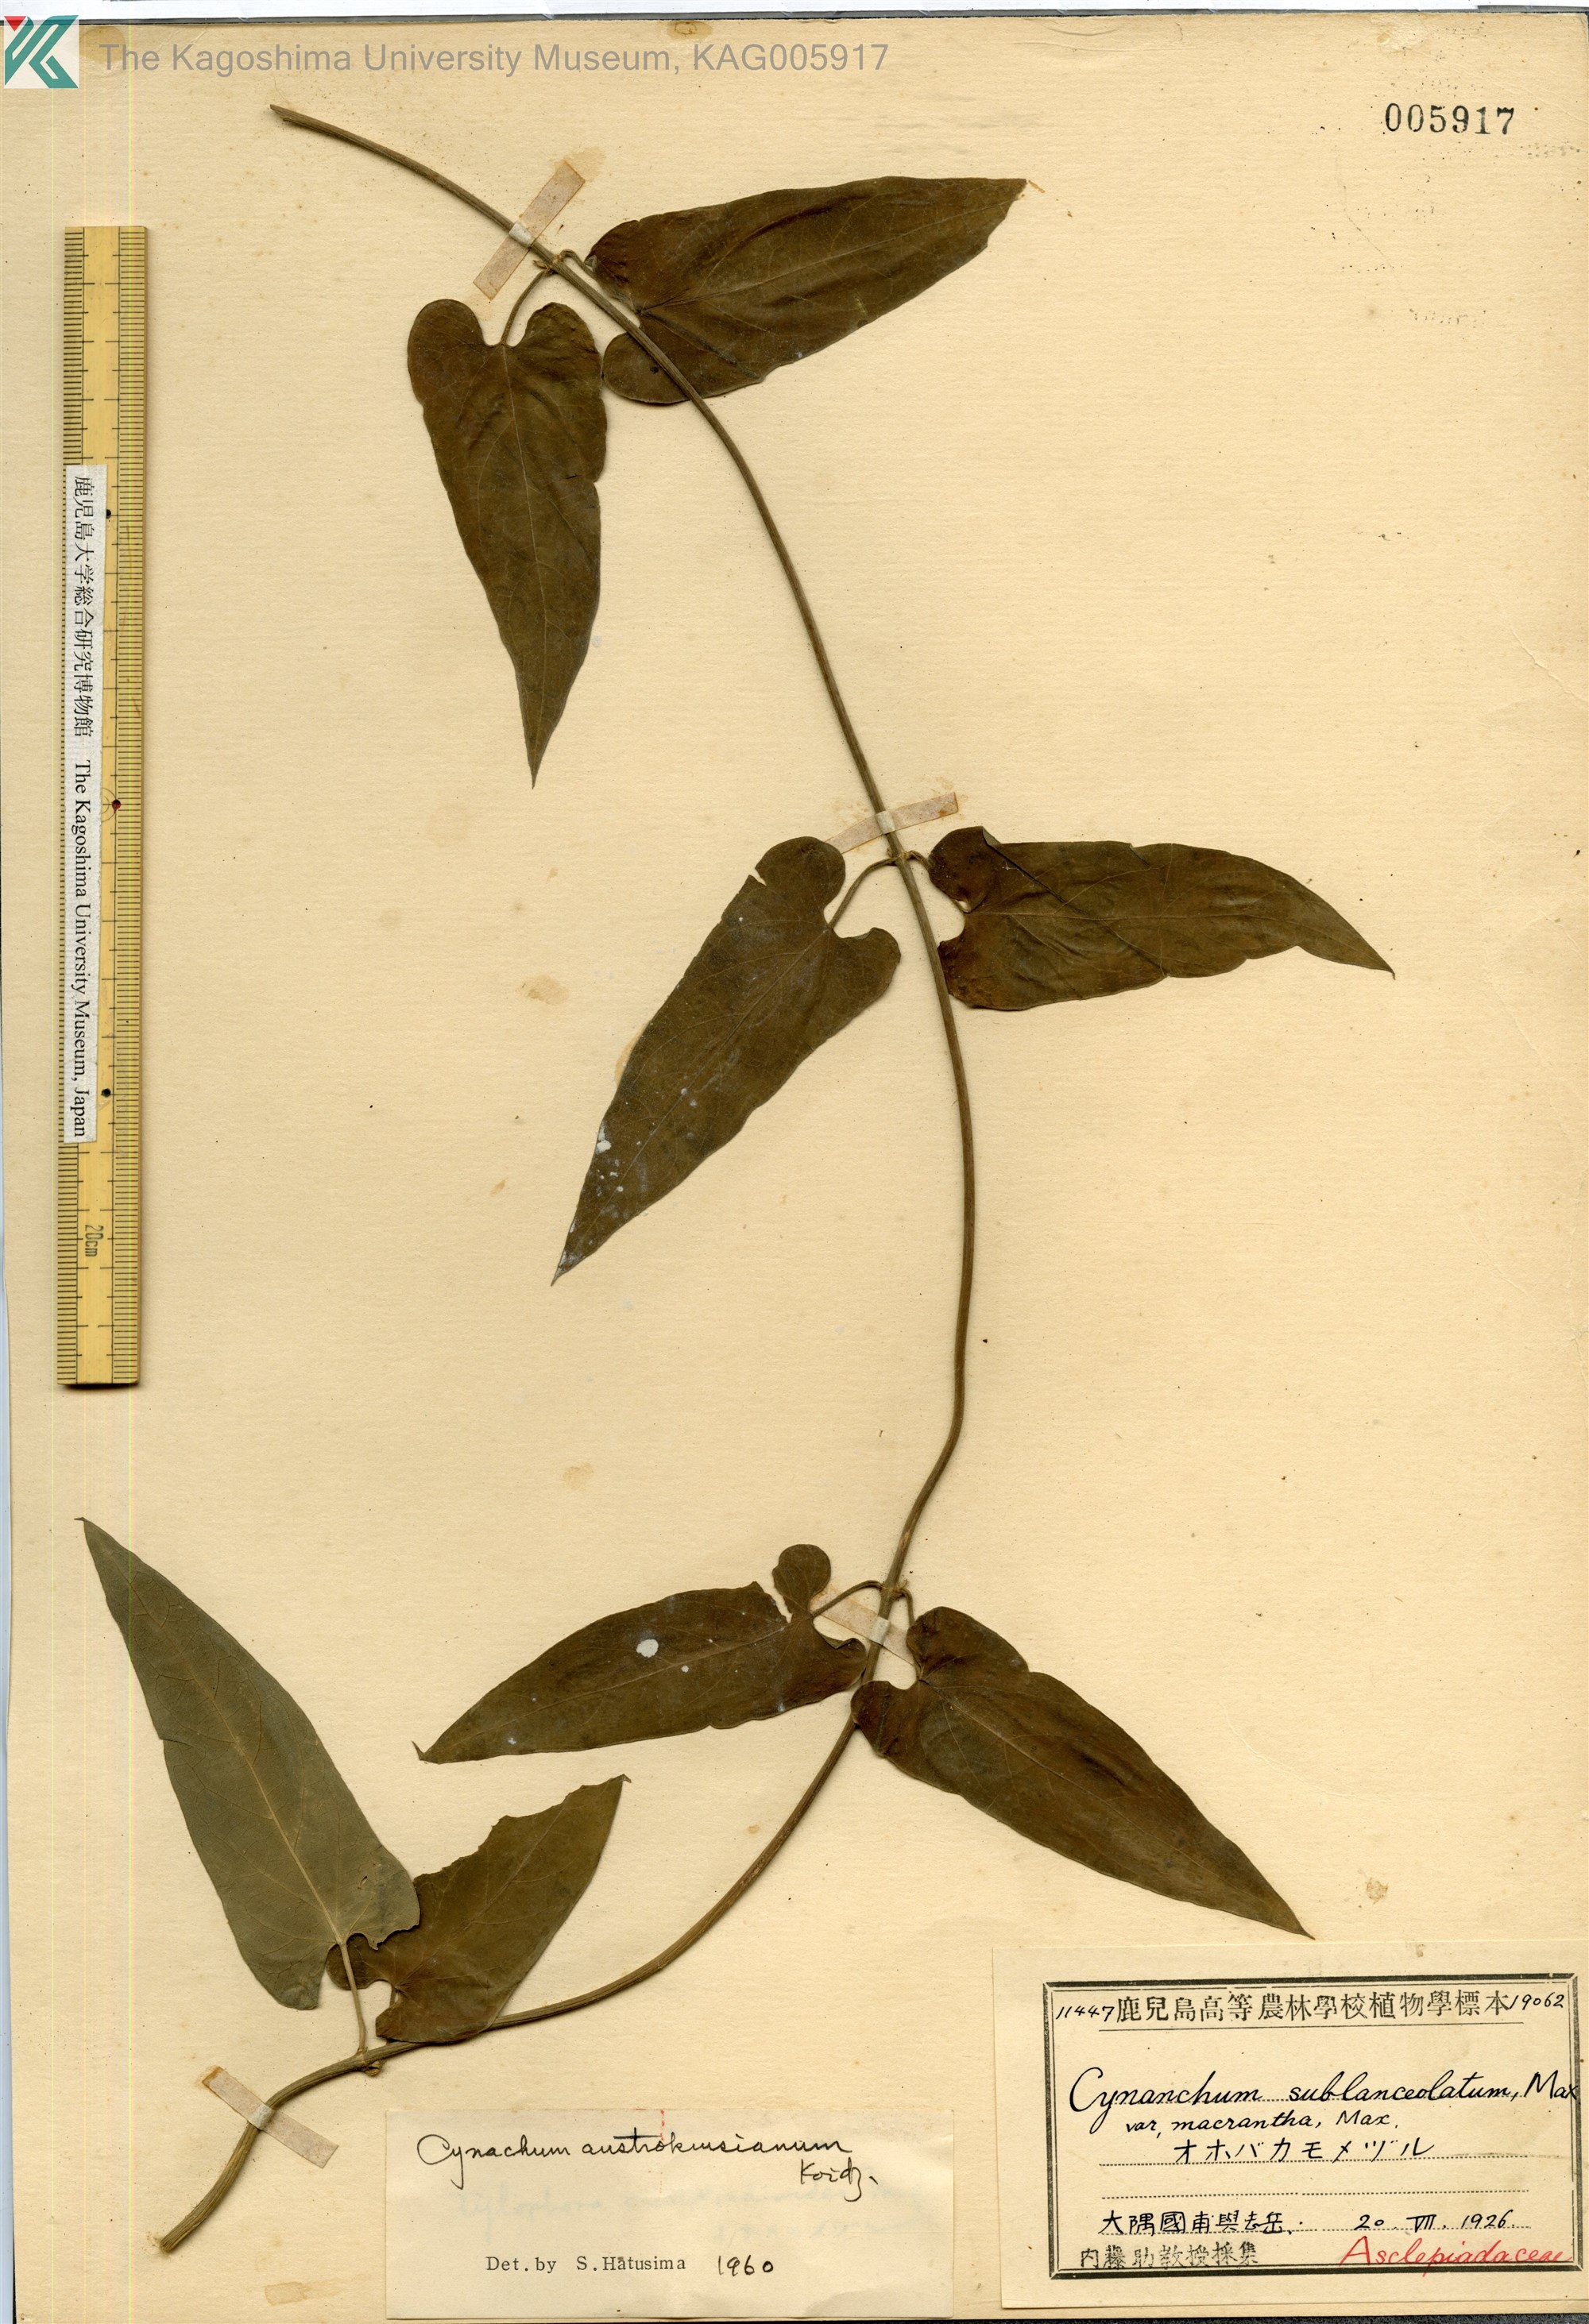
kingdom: Plantae
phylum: Tracheophyta
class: Magnoliopsida
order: Gentianales
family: Apocynaceae
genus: Vincetoxicum
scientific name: Vincetoxicum austrokiusianum
